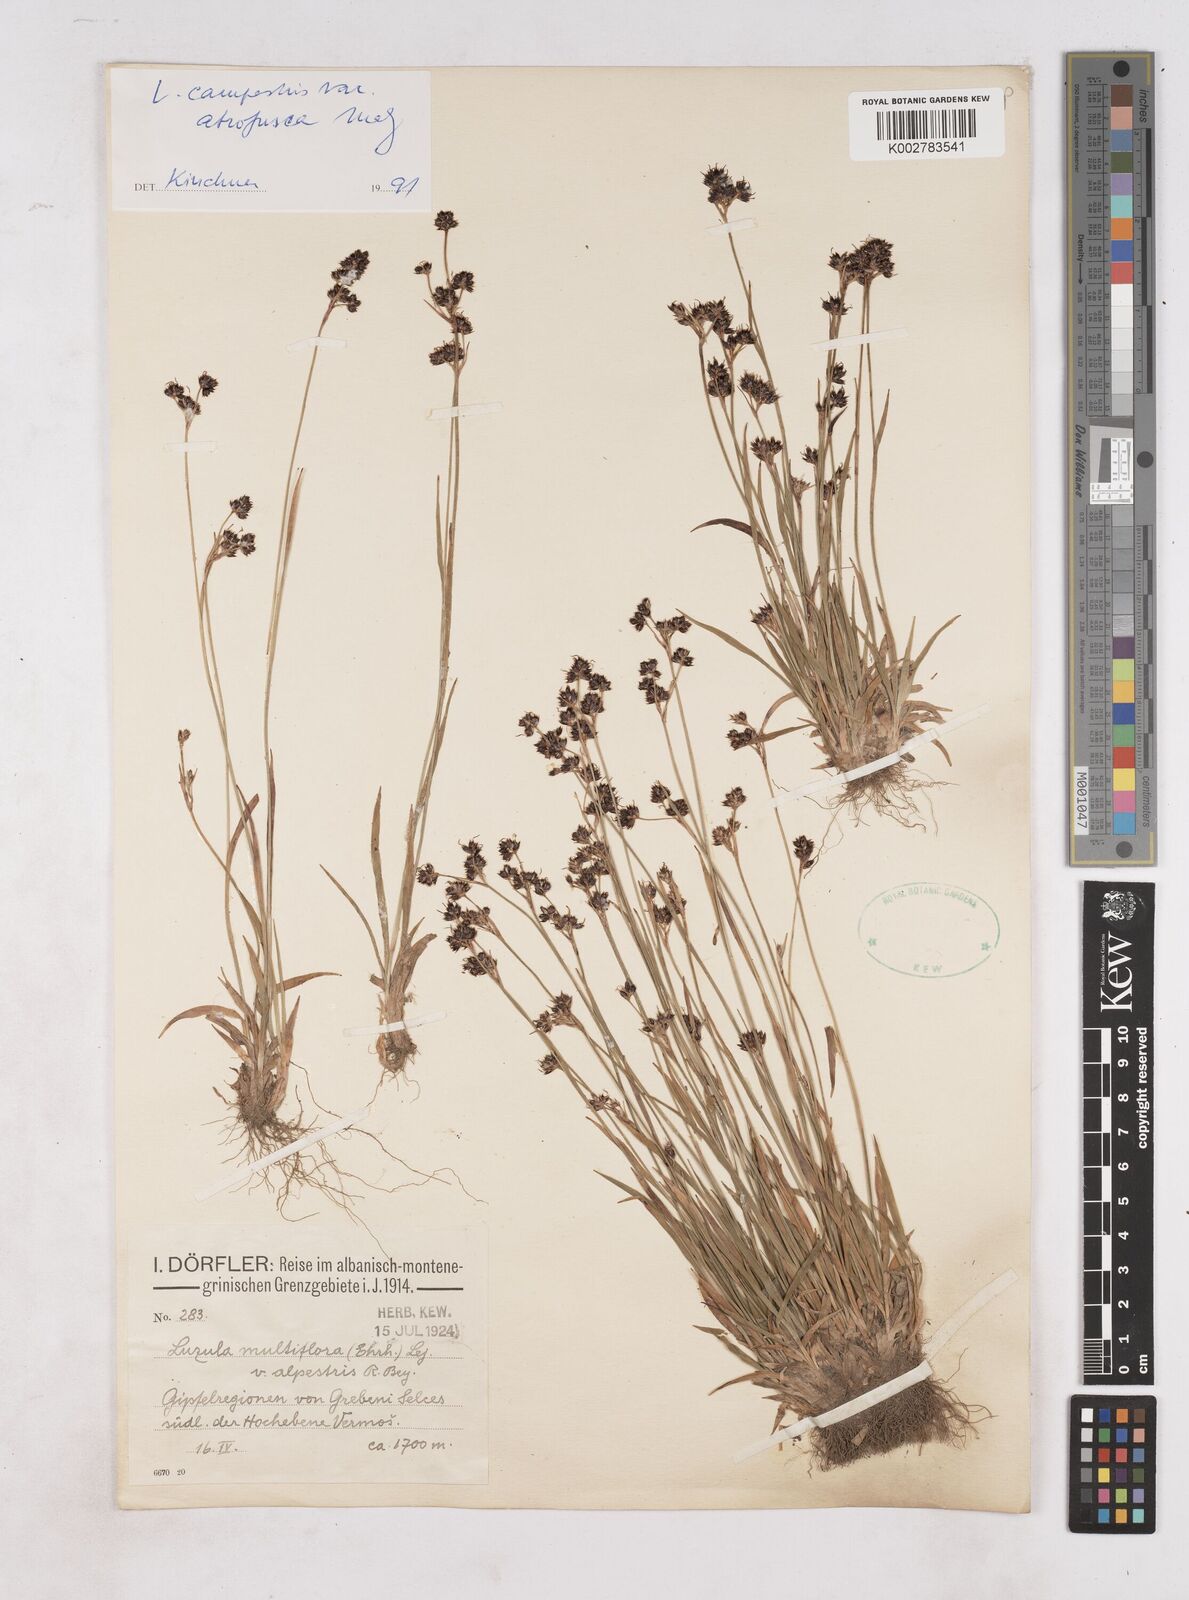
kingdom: Plantae
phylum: Tracheophyta
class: Liliopsida
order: Poales
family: Juncaceae
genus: Luzula
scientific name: Luzula taurica
